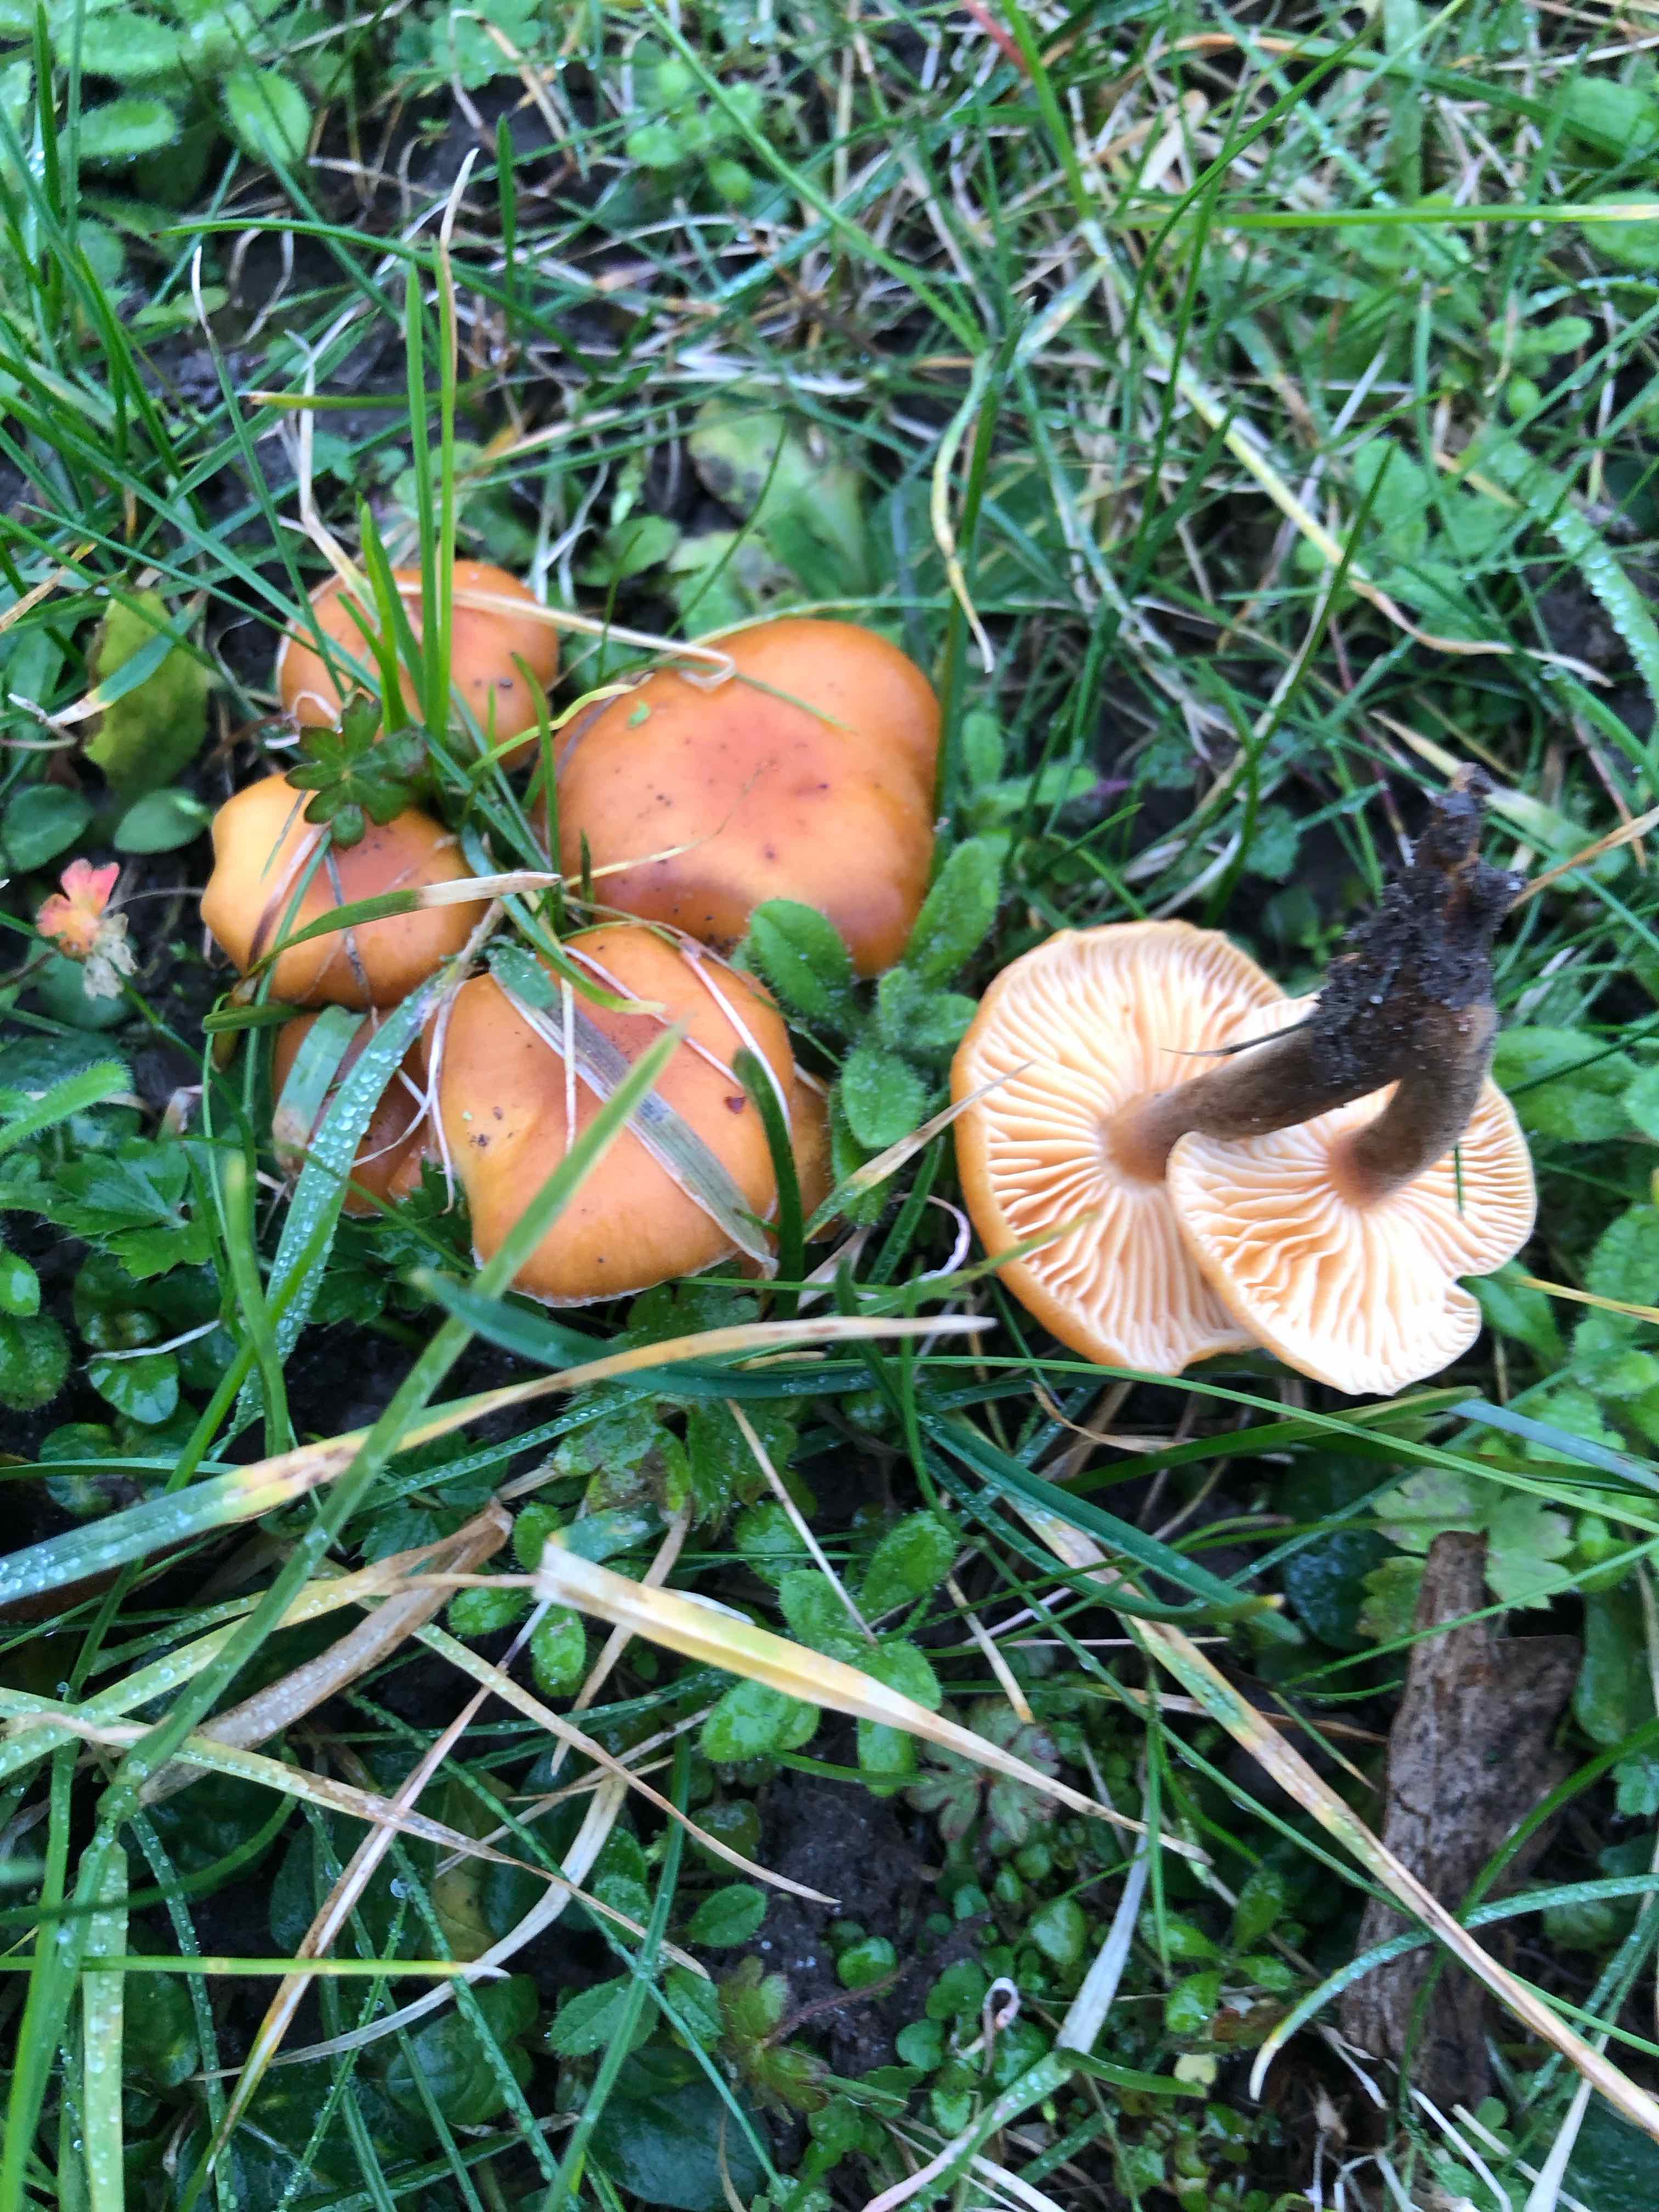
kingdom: Fungi
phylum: Basidiomycota
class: Agaricomycetes
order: Agaricales
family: Physalacriaceae
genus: Flammulina
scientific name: Flammulina
